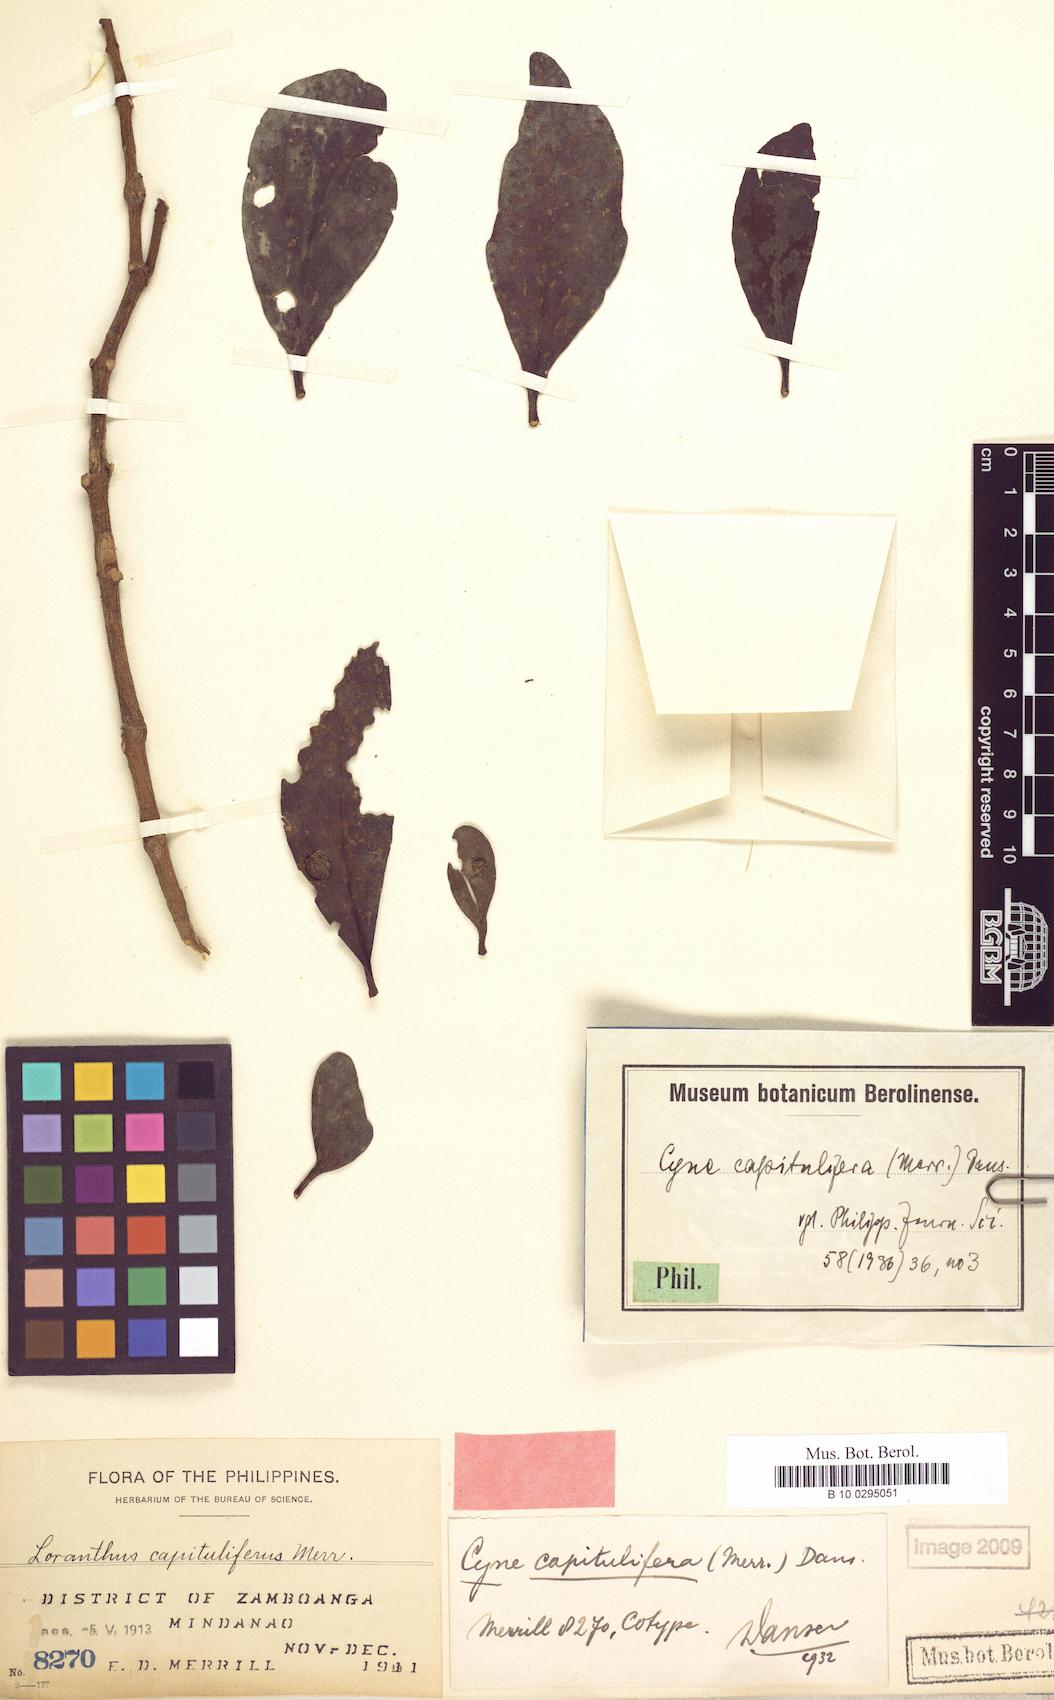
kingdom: Plantae
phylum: Tracheophyta
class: Magnoliopsida
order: Santalales
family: Loranthaceae
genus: Cyne
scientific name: Cyne banahaensis
